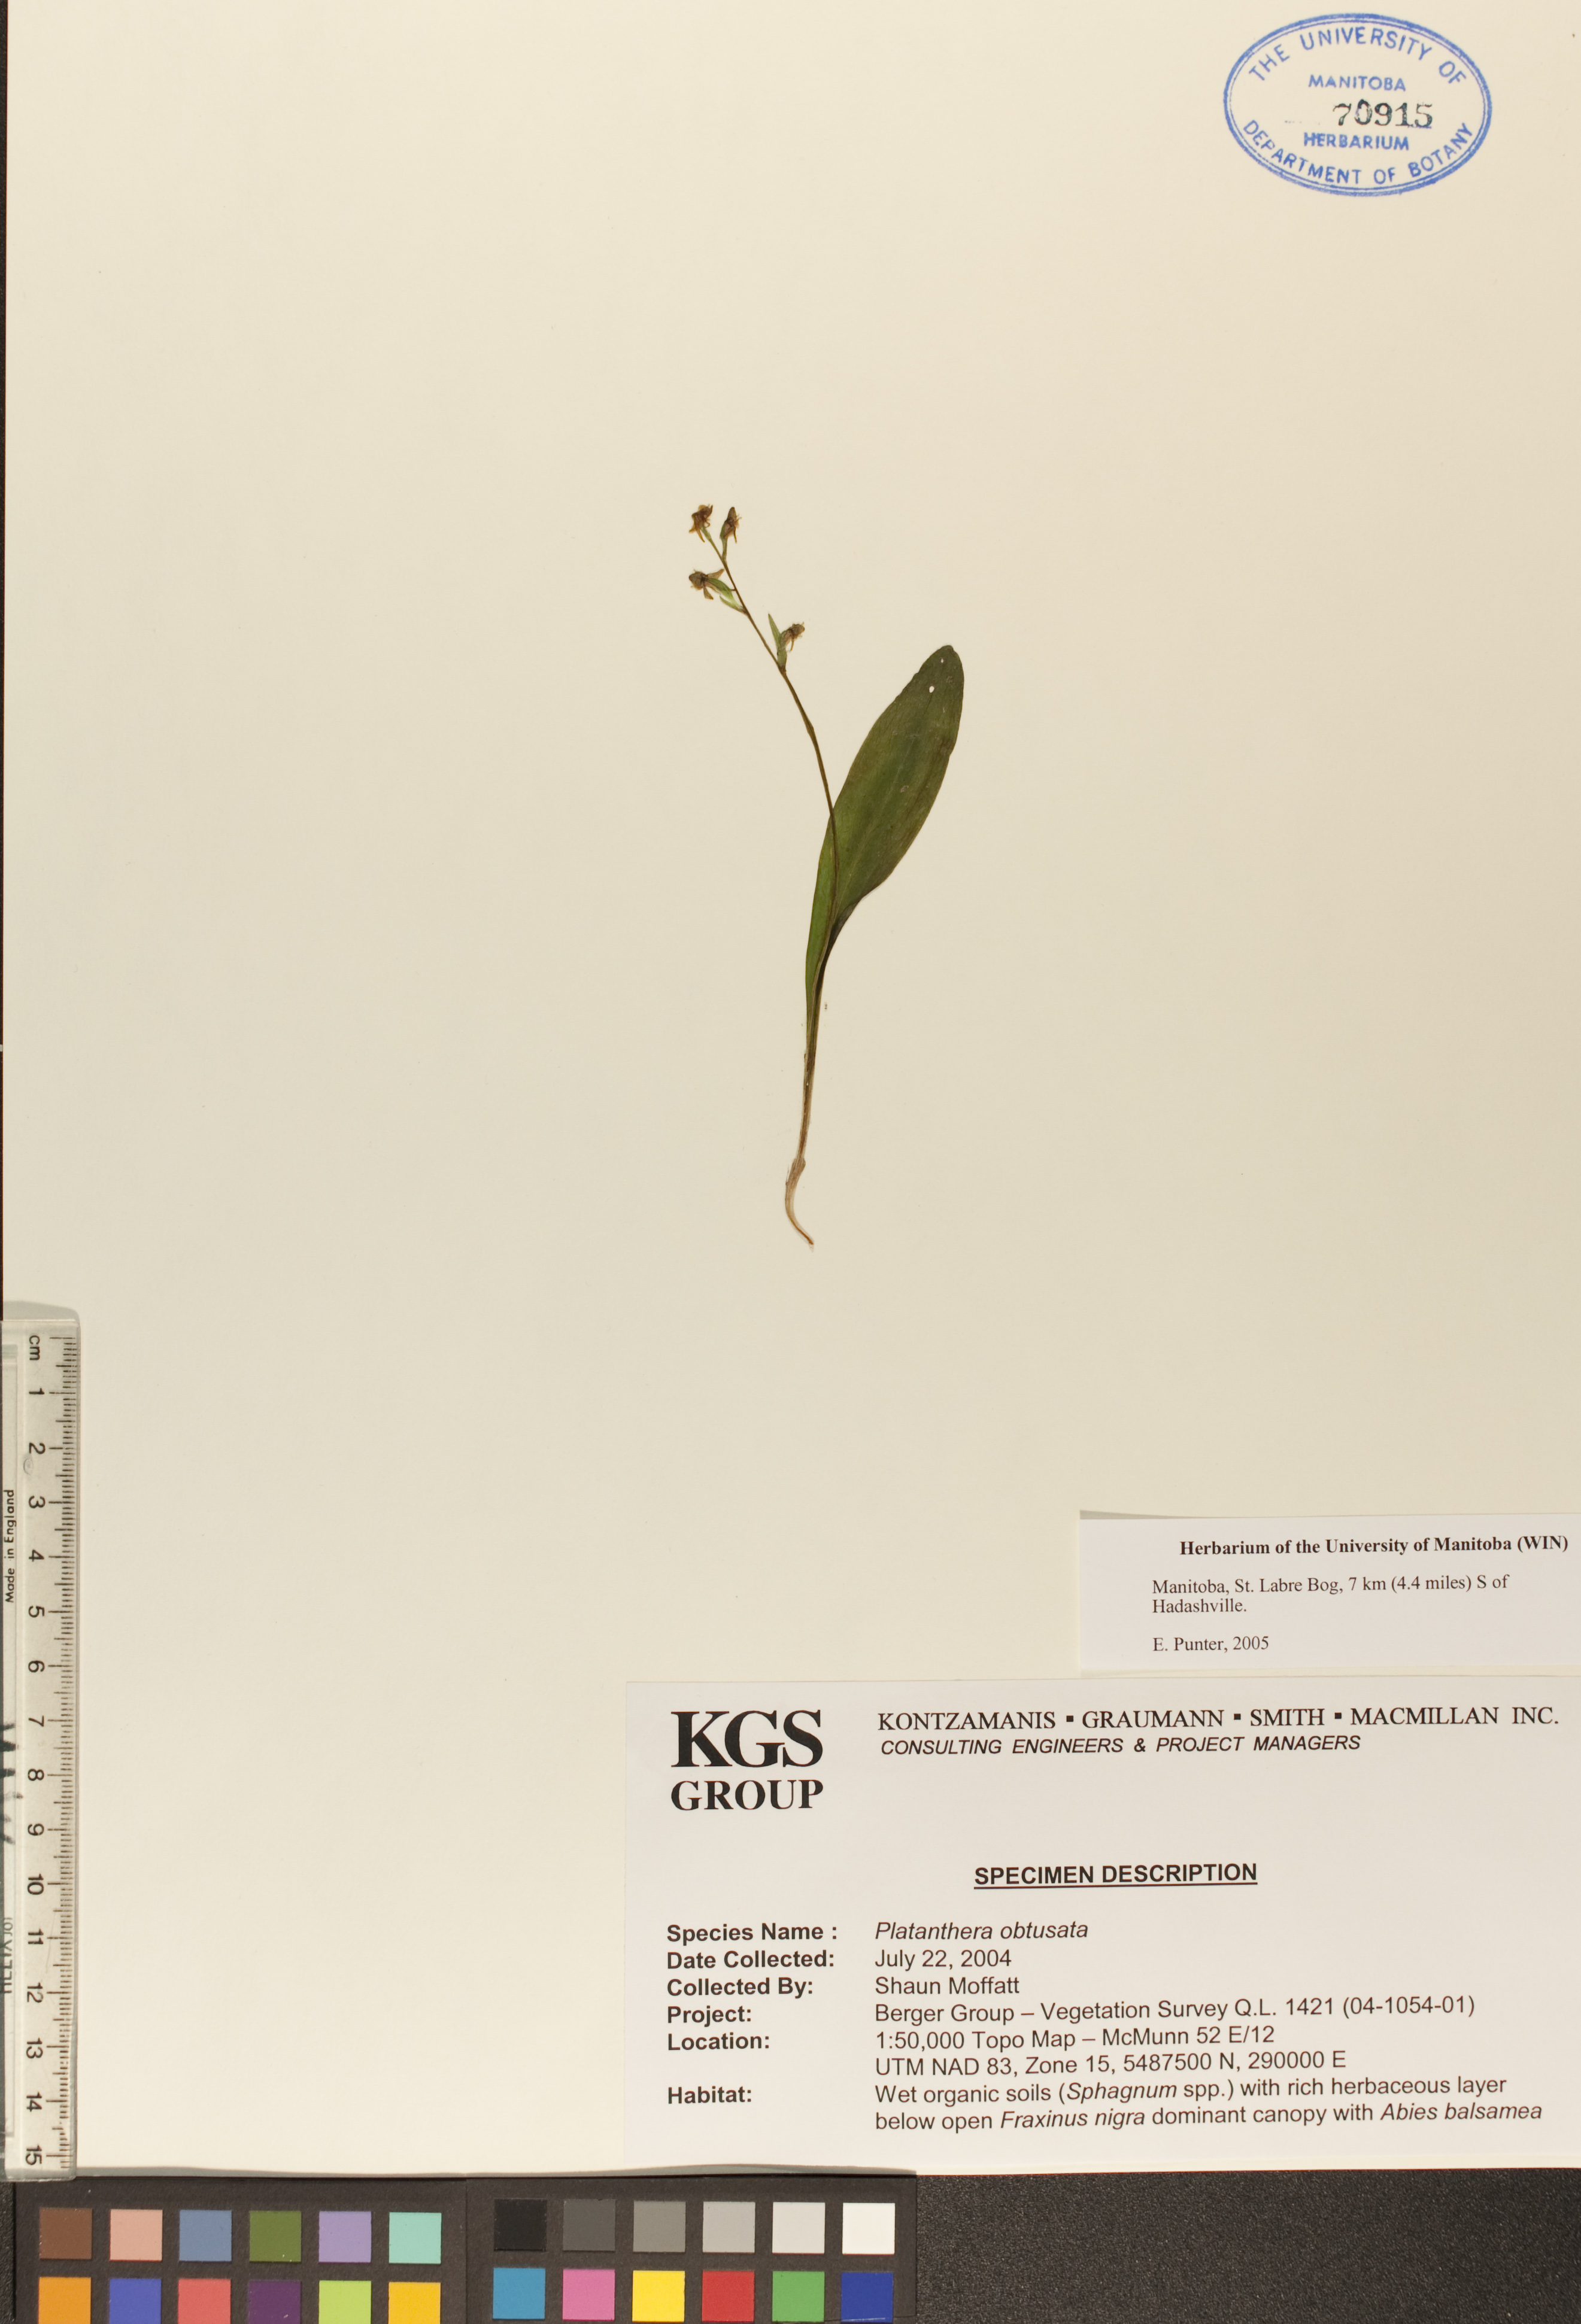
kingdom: Plantae
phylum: Tracheophyta
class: Liliopsida
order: Asparagales
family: Orchidaceae
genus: Platanthera
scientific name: Platanthera obtusata
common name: Blunt bog orchid
